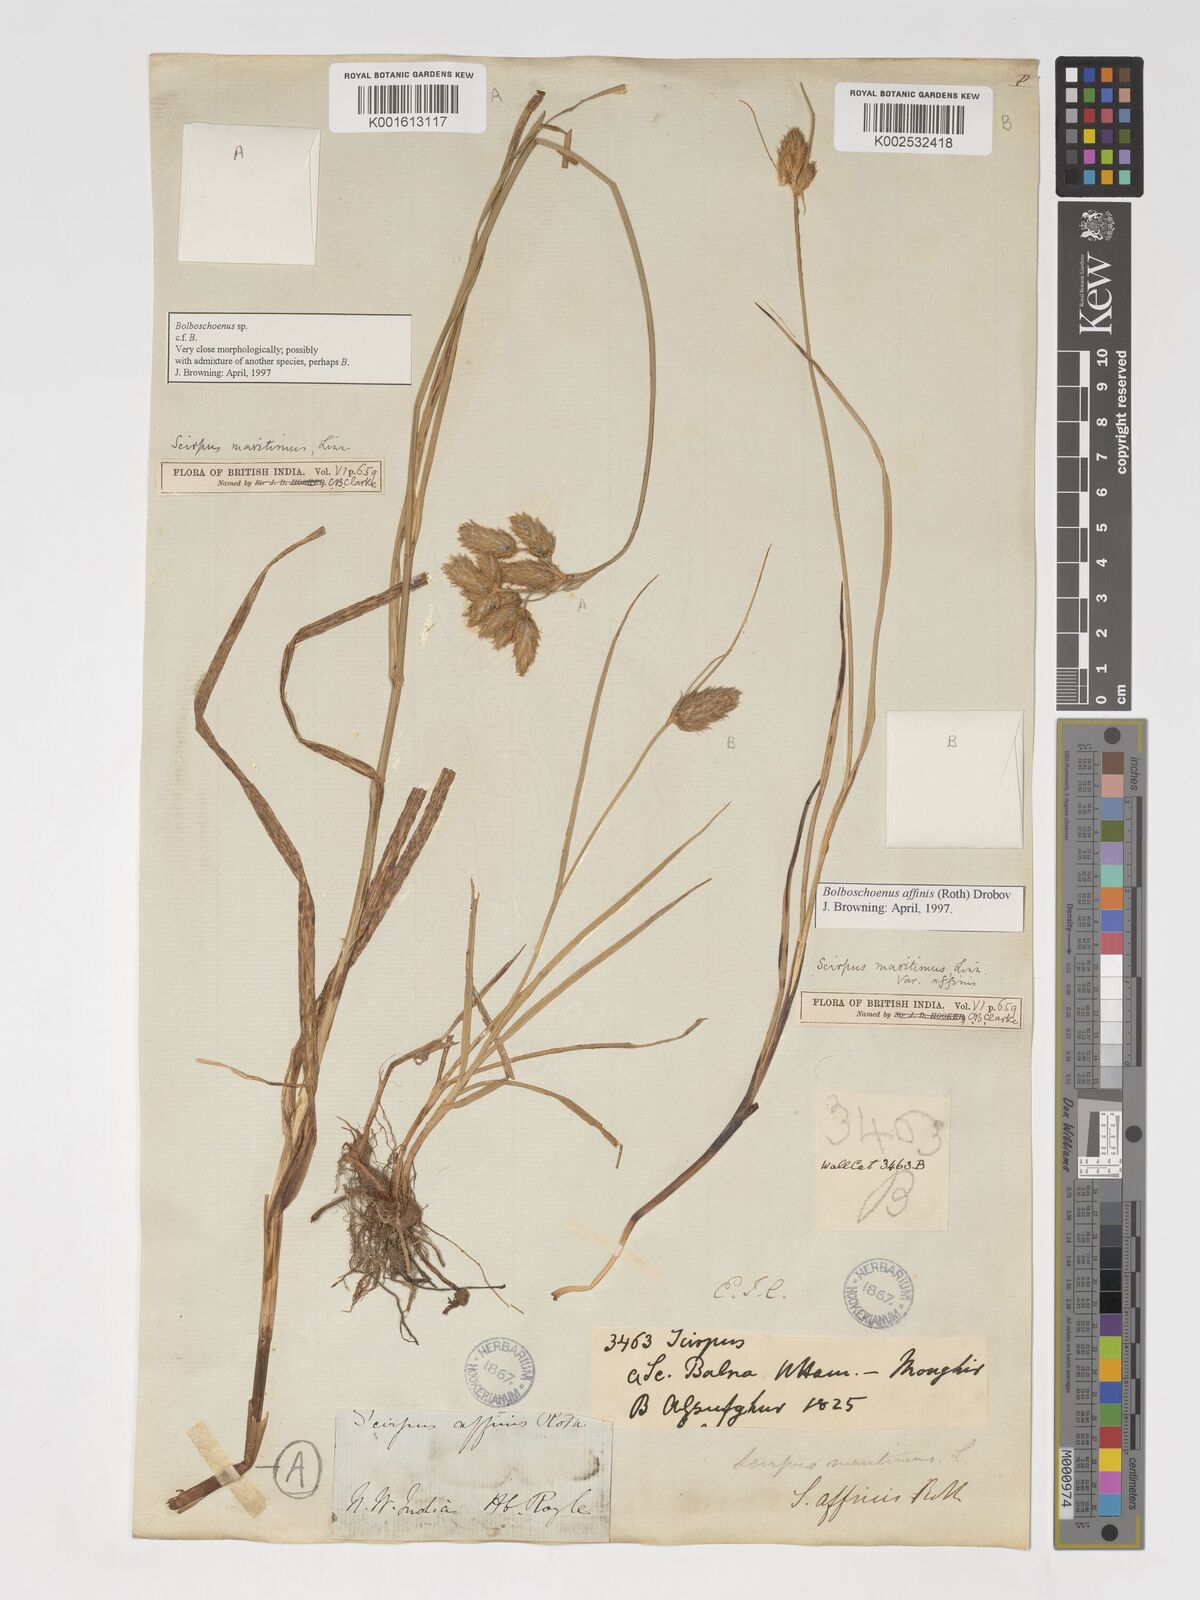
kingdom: Plantae
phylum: Tracheophyta
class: Liliopsida
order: Poales
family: Cyperaceae
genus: Bolboschoenus
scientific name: Bolboschoenus maritimus
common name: Sea club-rush
